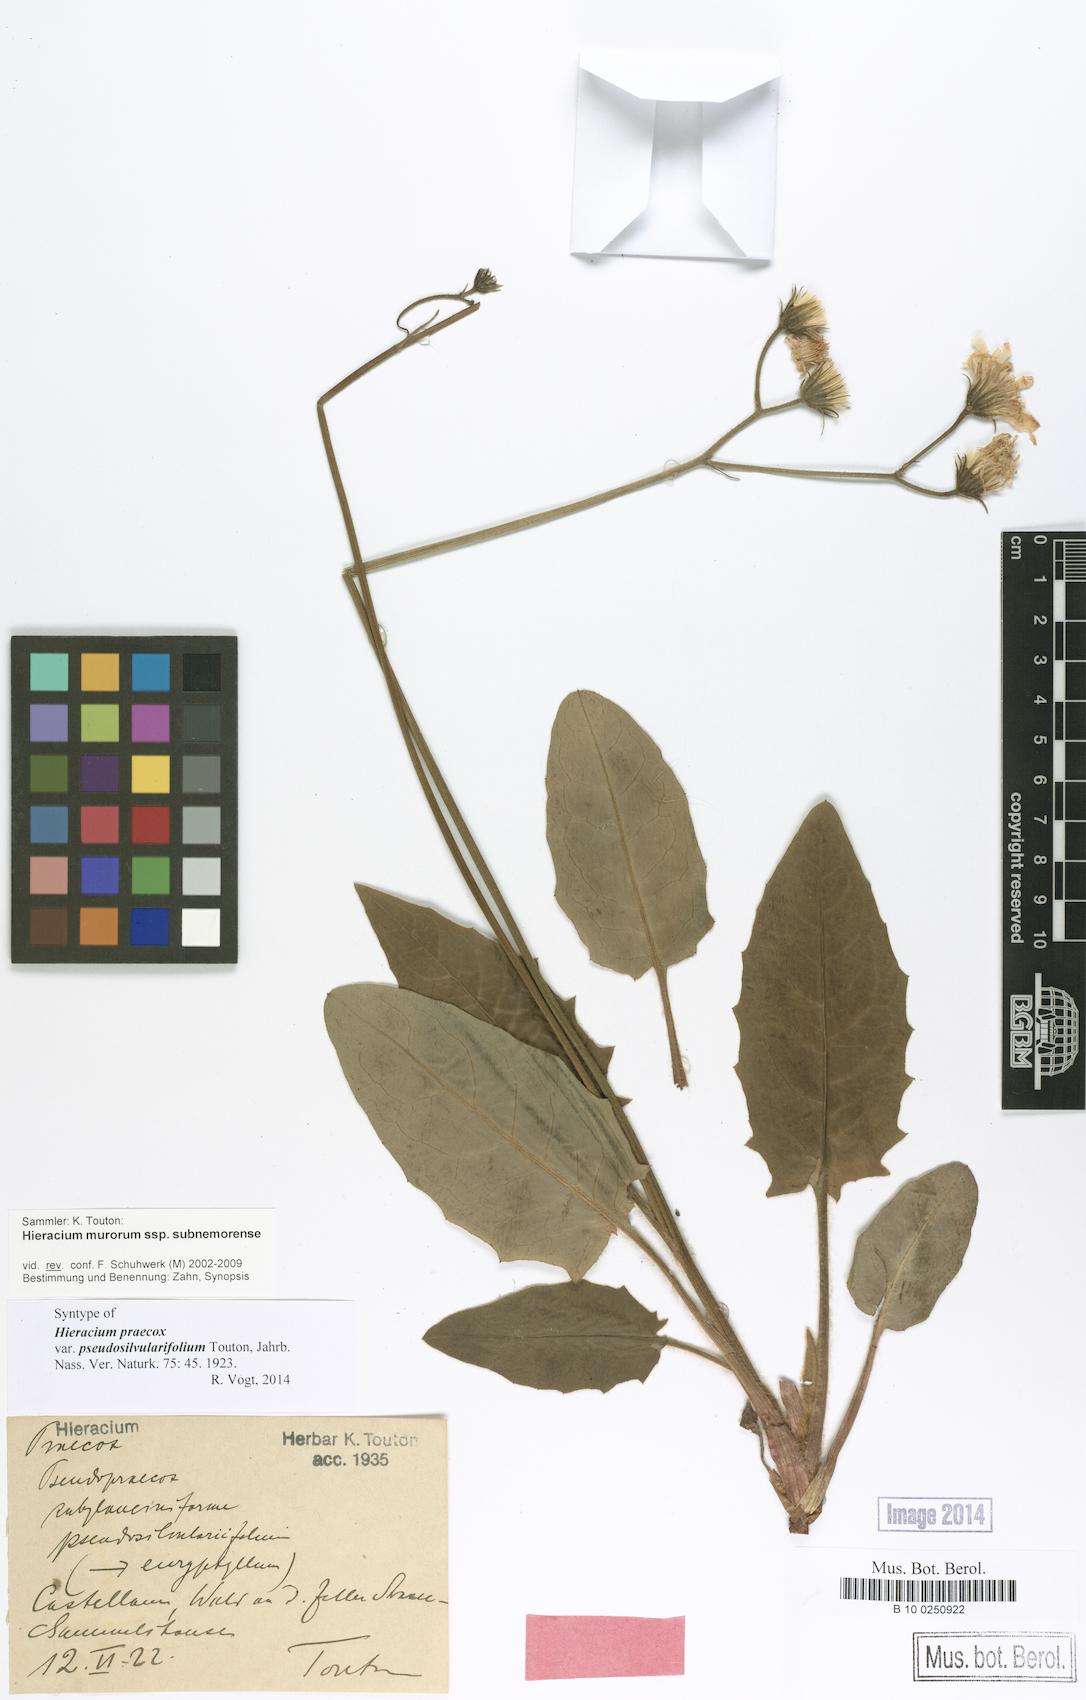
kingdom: Plantae
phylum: Tracheophyta
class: Magnoliopsida
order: Asterales
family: Asteraceae
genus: Hieracium
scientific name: Hieracium praecox
